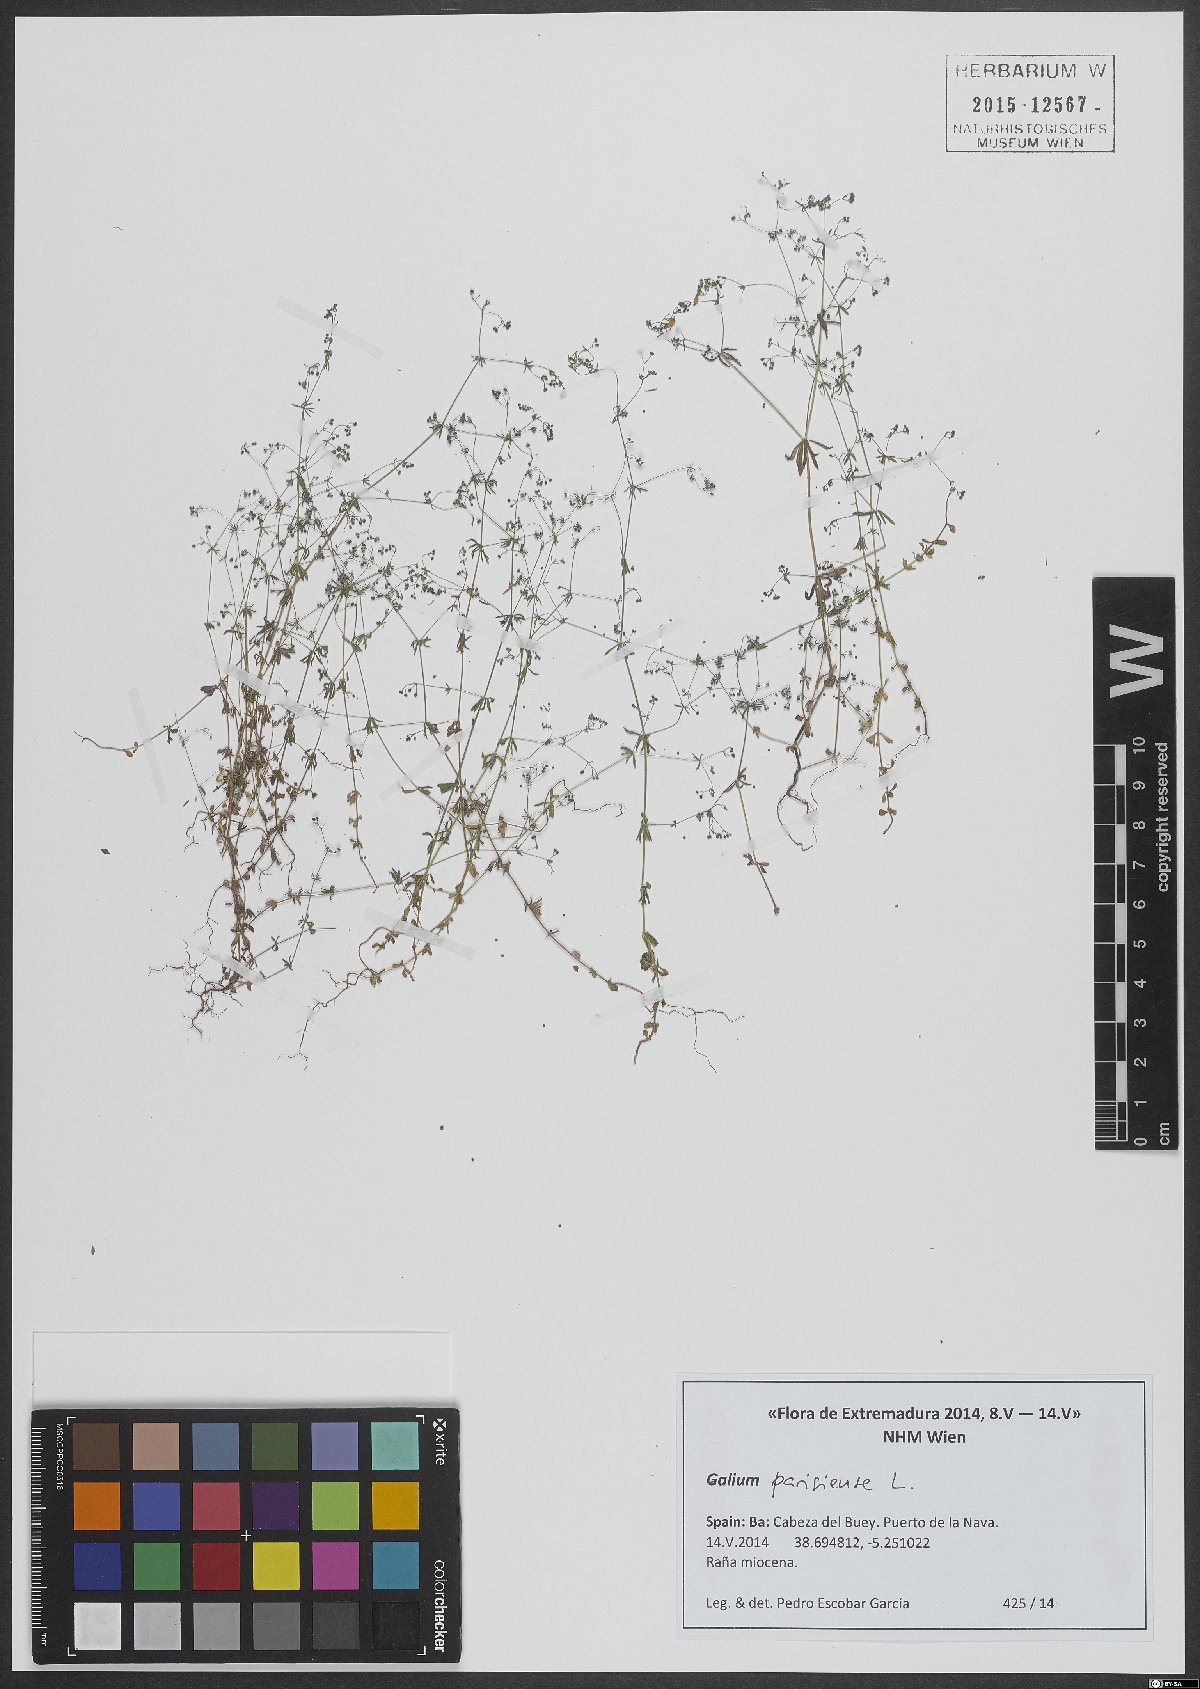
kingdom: Plantae
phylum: Tracheophyta
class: Magnoliopsida
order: Gentianales
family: Rubiaceae
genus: Galium
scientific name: Galium parisiense
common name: Wall bedstraw
